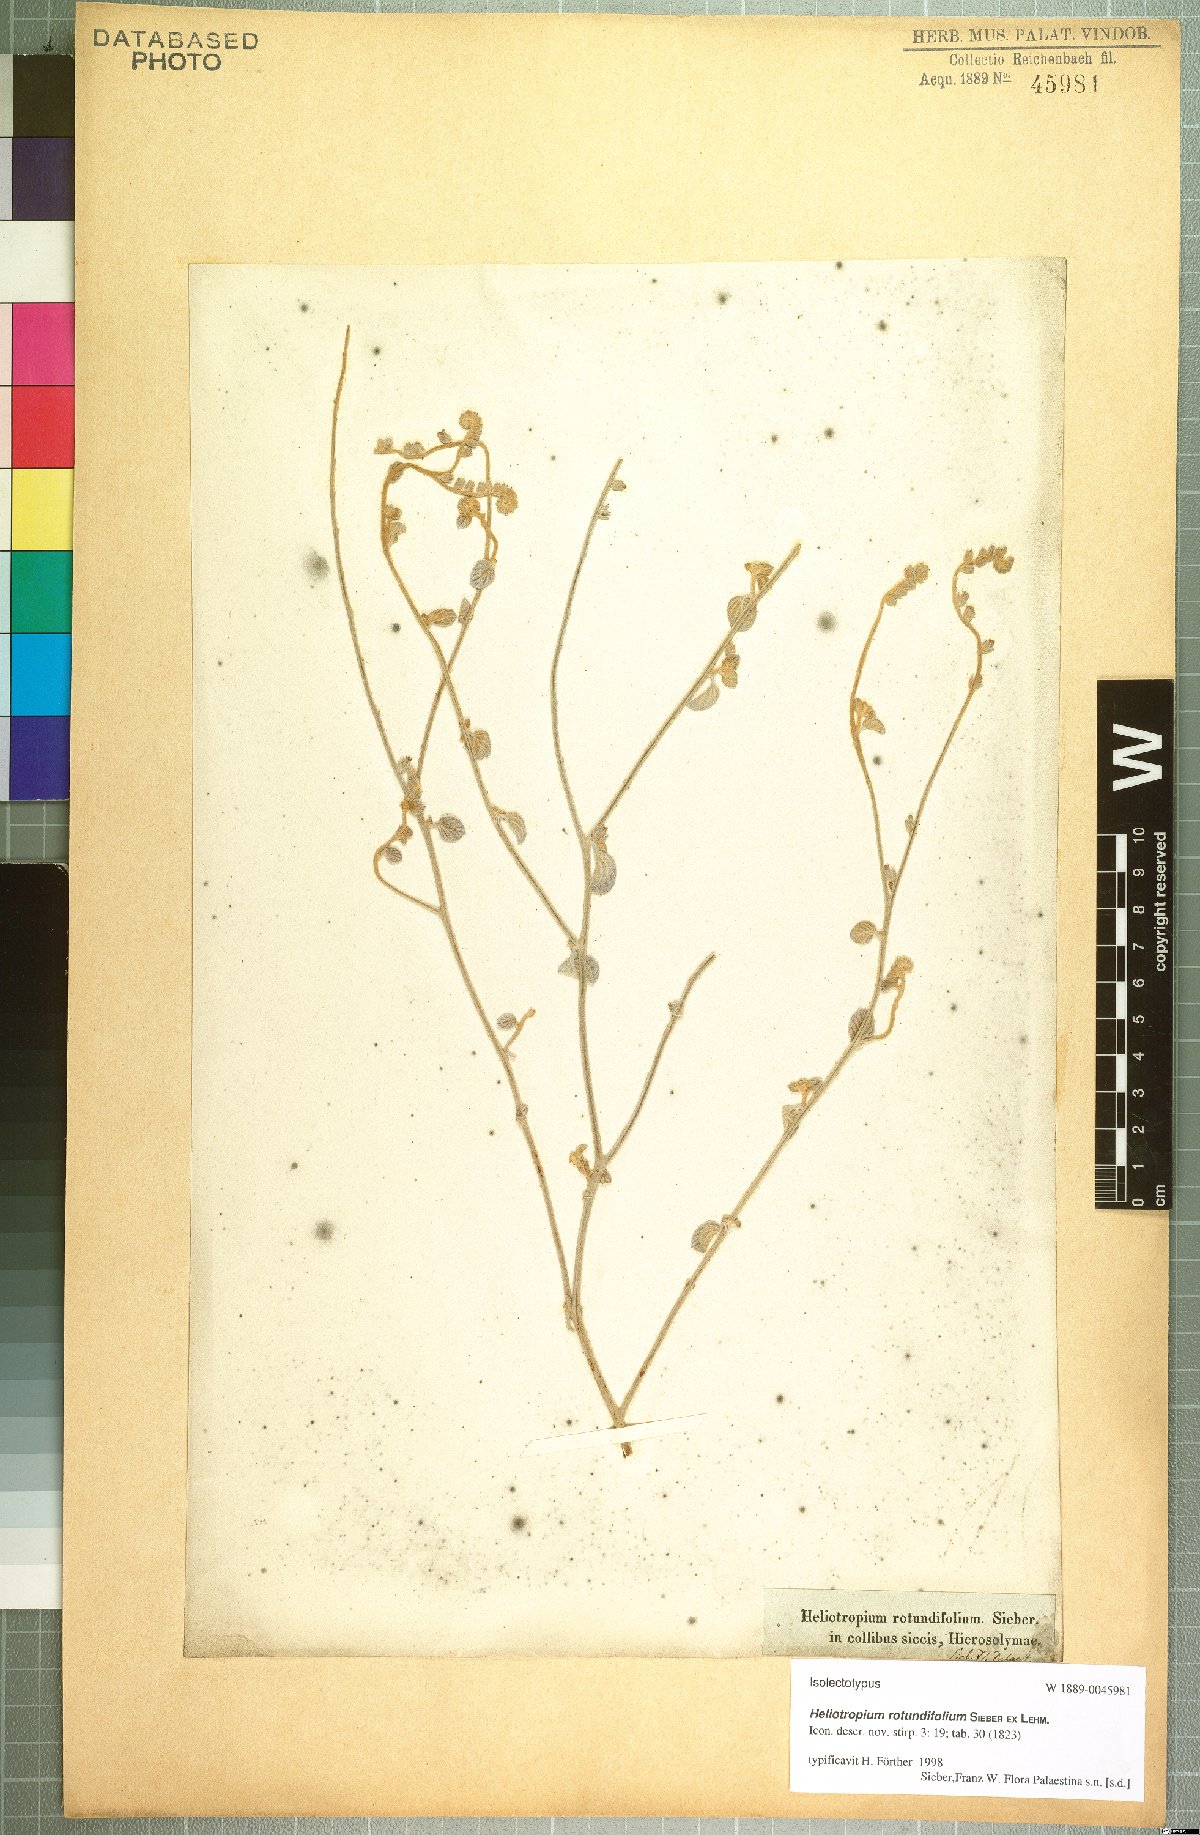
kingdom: Plantae
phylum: Tracheophyta
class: Magnoliopsida
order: Boraginales
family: Heliotropiaceae
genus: Heliotropium
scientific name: Heliotropium rotundifolium
